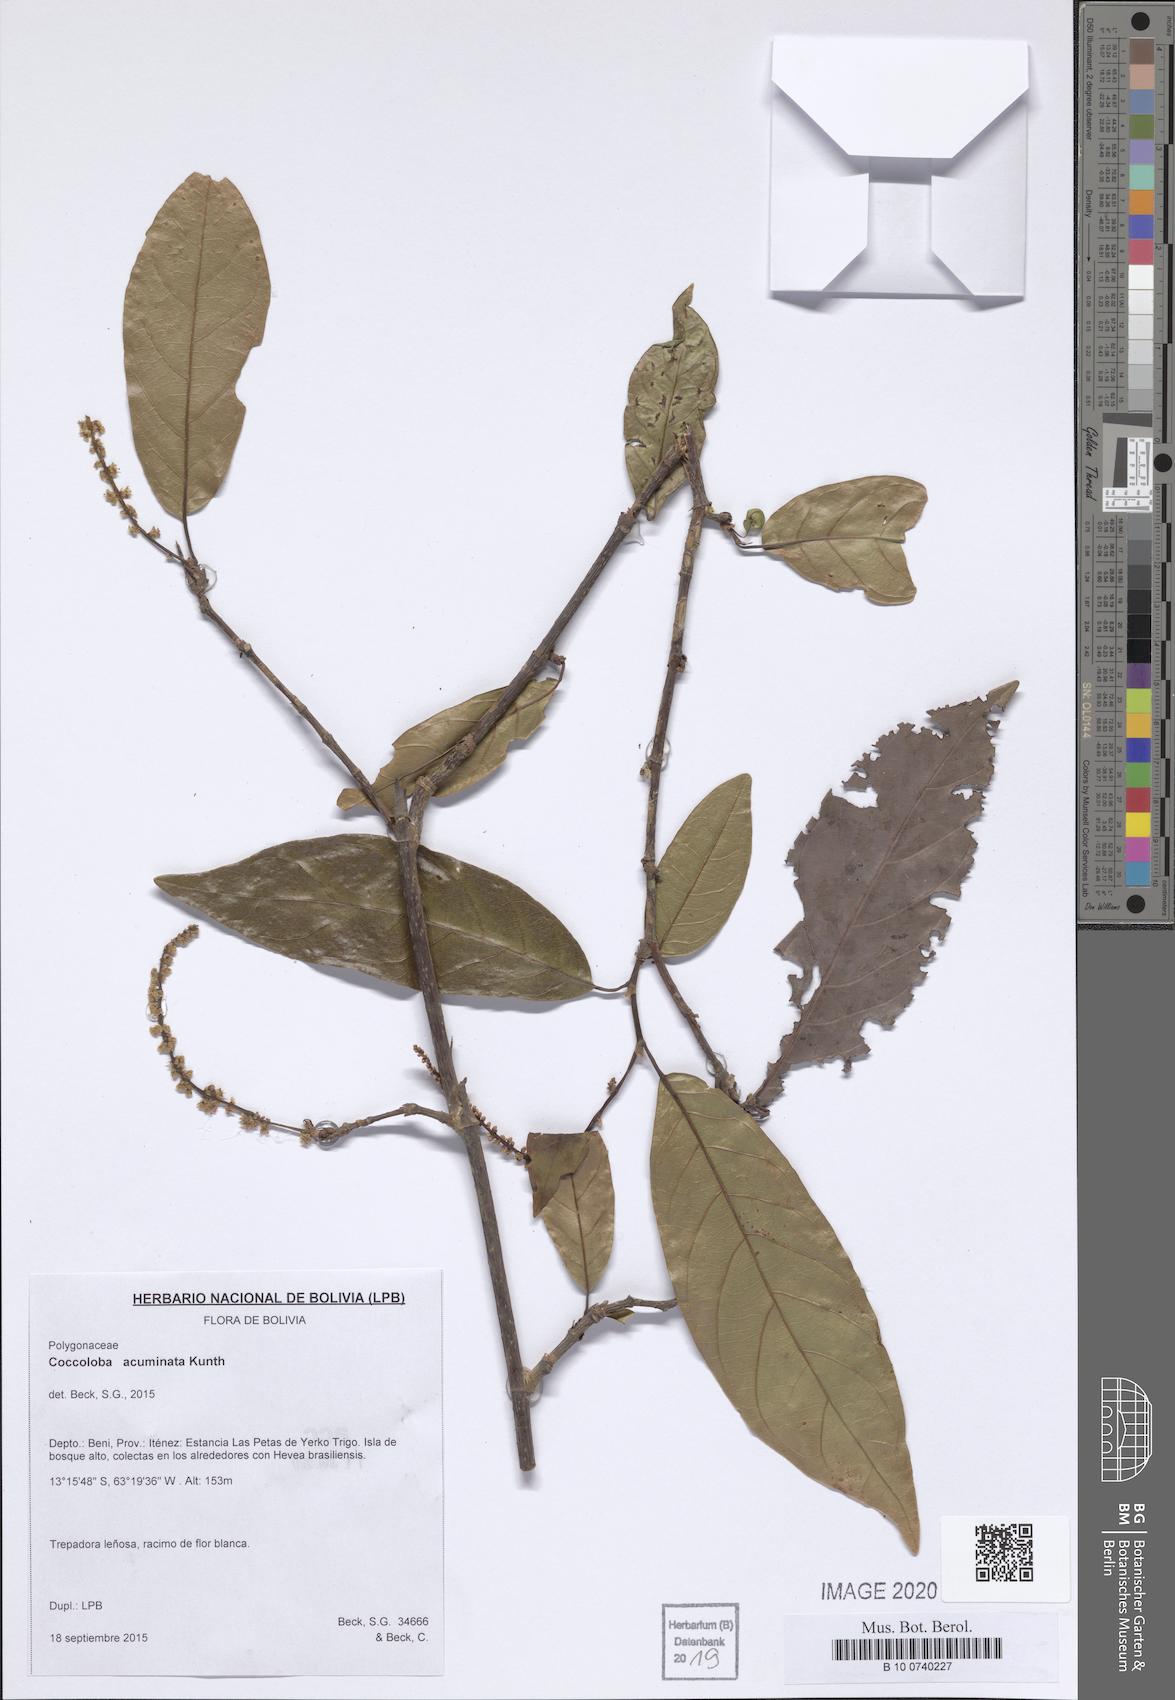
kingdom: Plantae
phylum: Tracheophyta
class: Magnoliopsida
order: Caryophyllales
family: Polygonaceae
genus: Coccoloba
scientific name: Coccoloba acuminata
